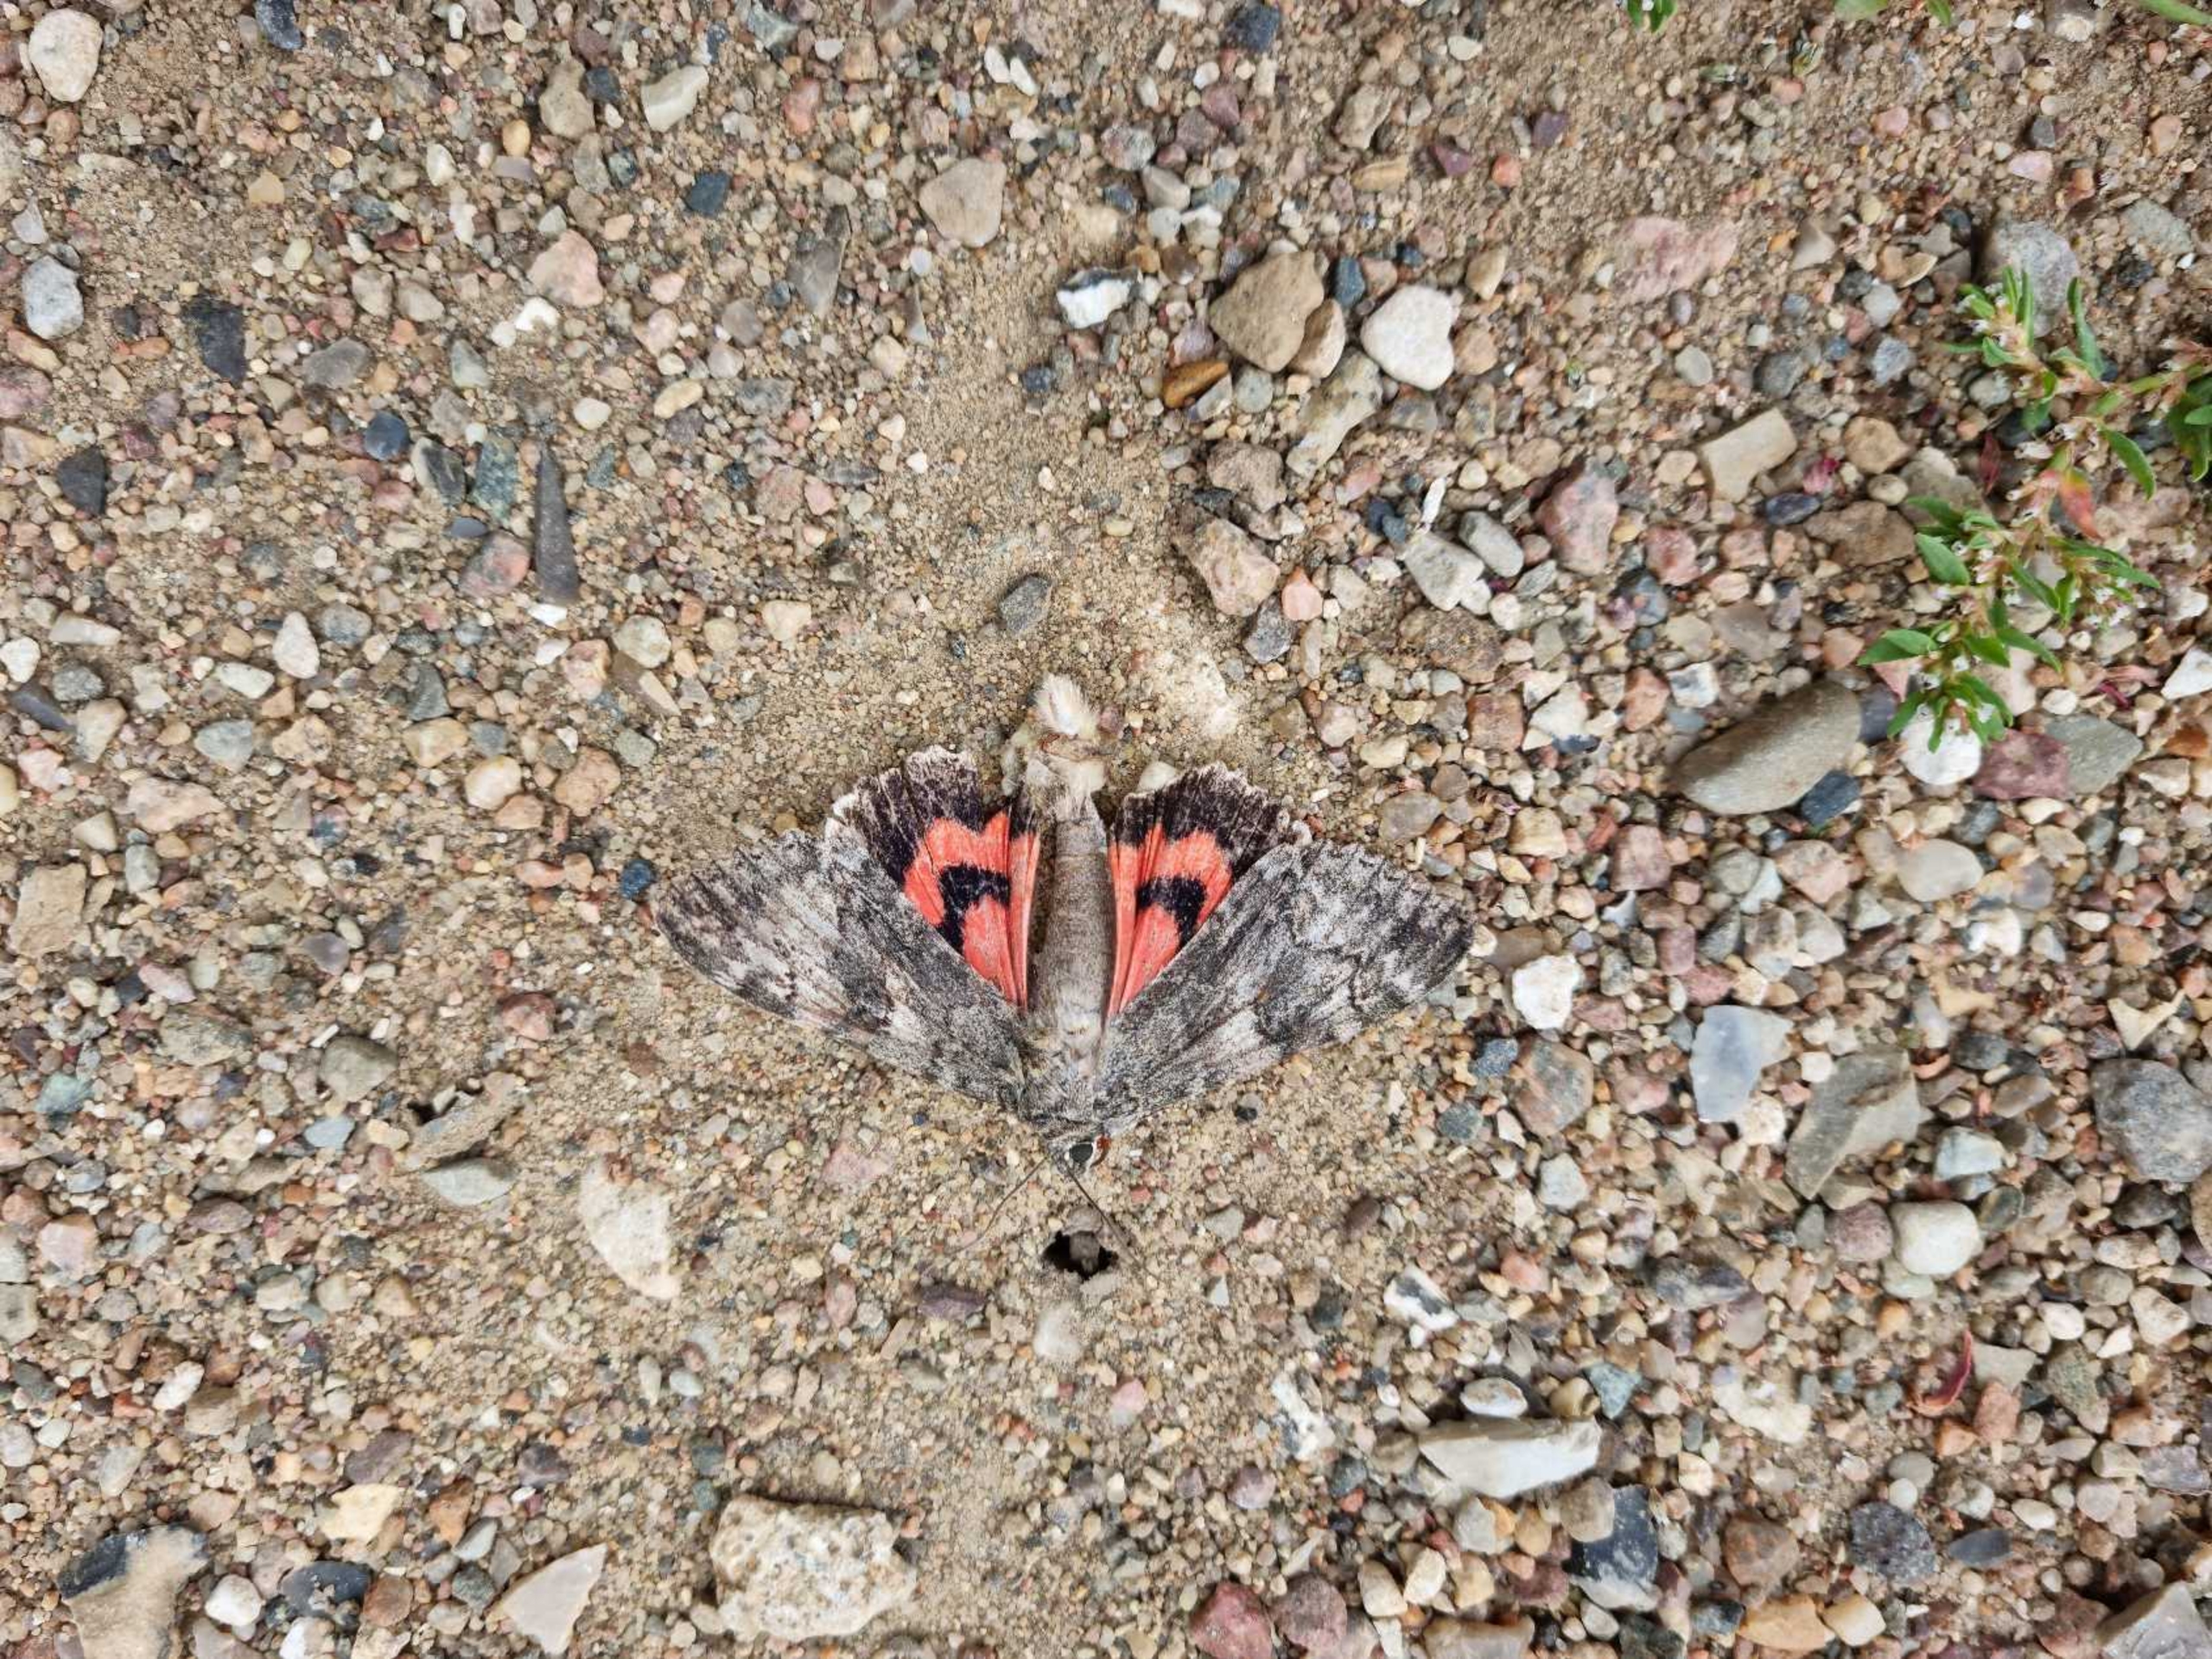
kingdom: Animalia
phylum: Arthropoda
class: Insecta
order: Lepidoptera
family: Erebidae
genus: Catocala
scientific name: Catocala nupta
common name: Rødt ordensbånd
